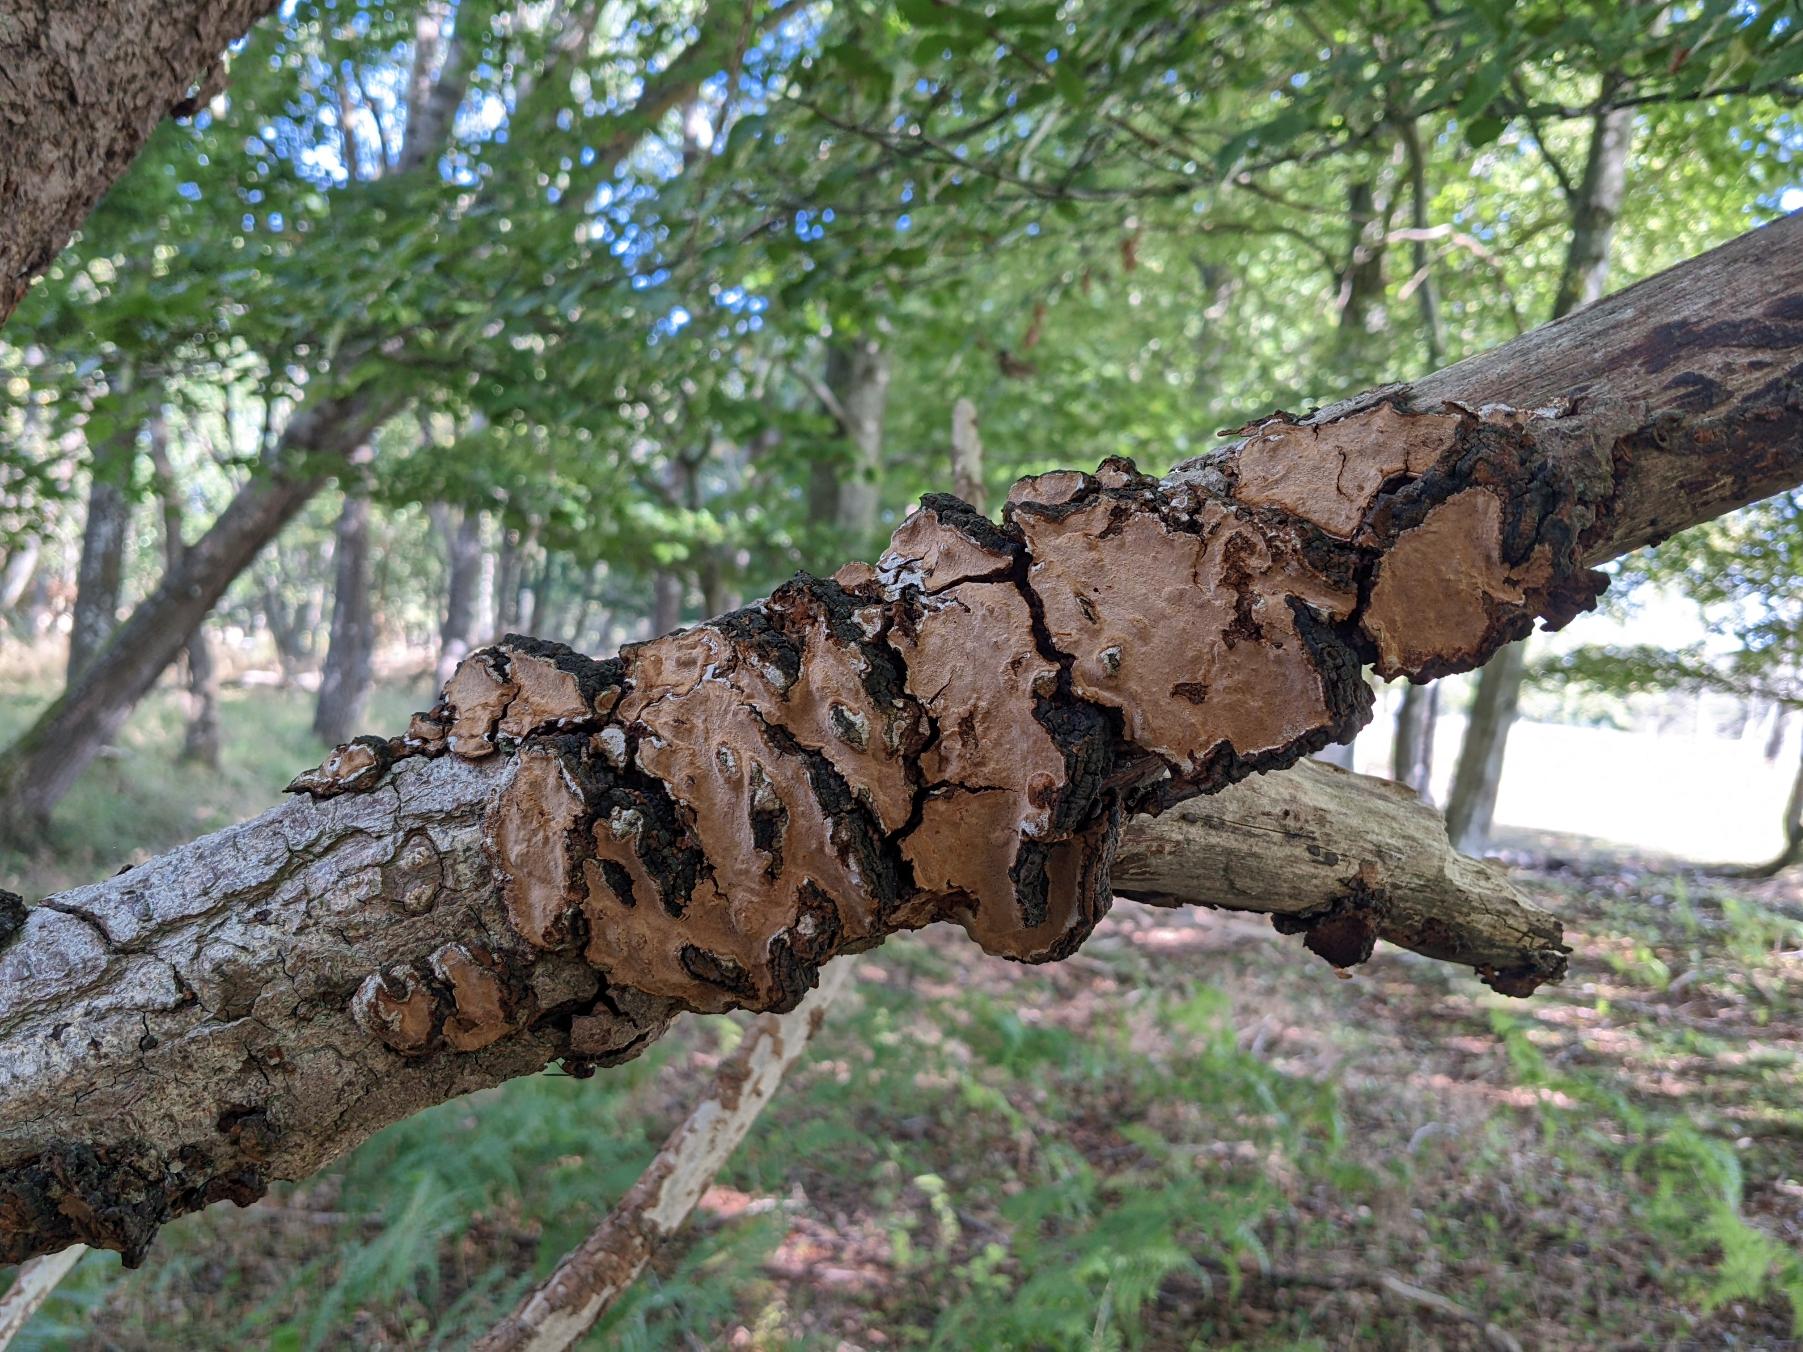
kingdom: Fungi
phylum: Basidiomycota
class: Agaricomycetes
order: Hymenochaetales
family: Hymenochaetaceae
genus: Phellinopsis
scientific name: Phellinopsis conchata
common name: Pile-ildporesvamp
